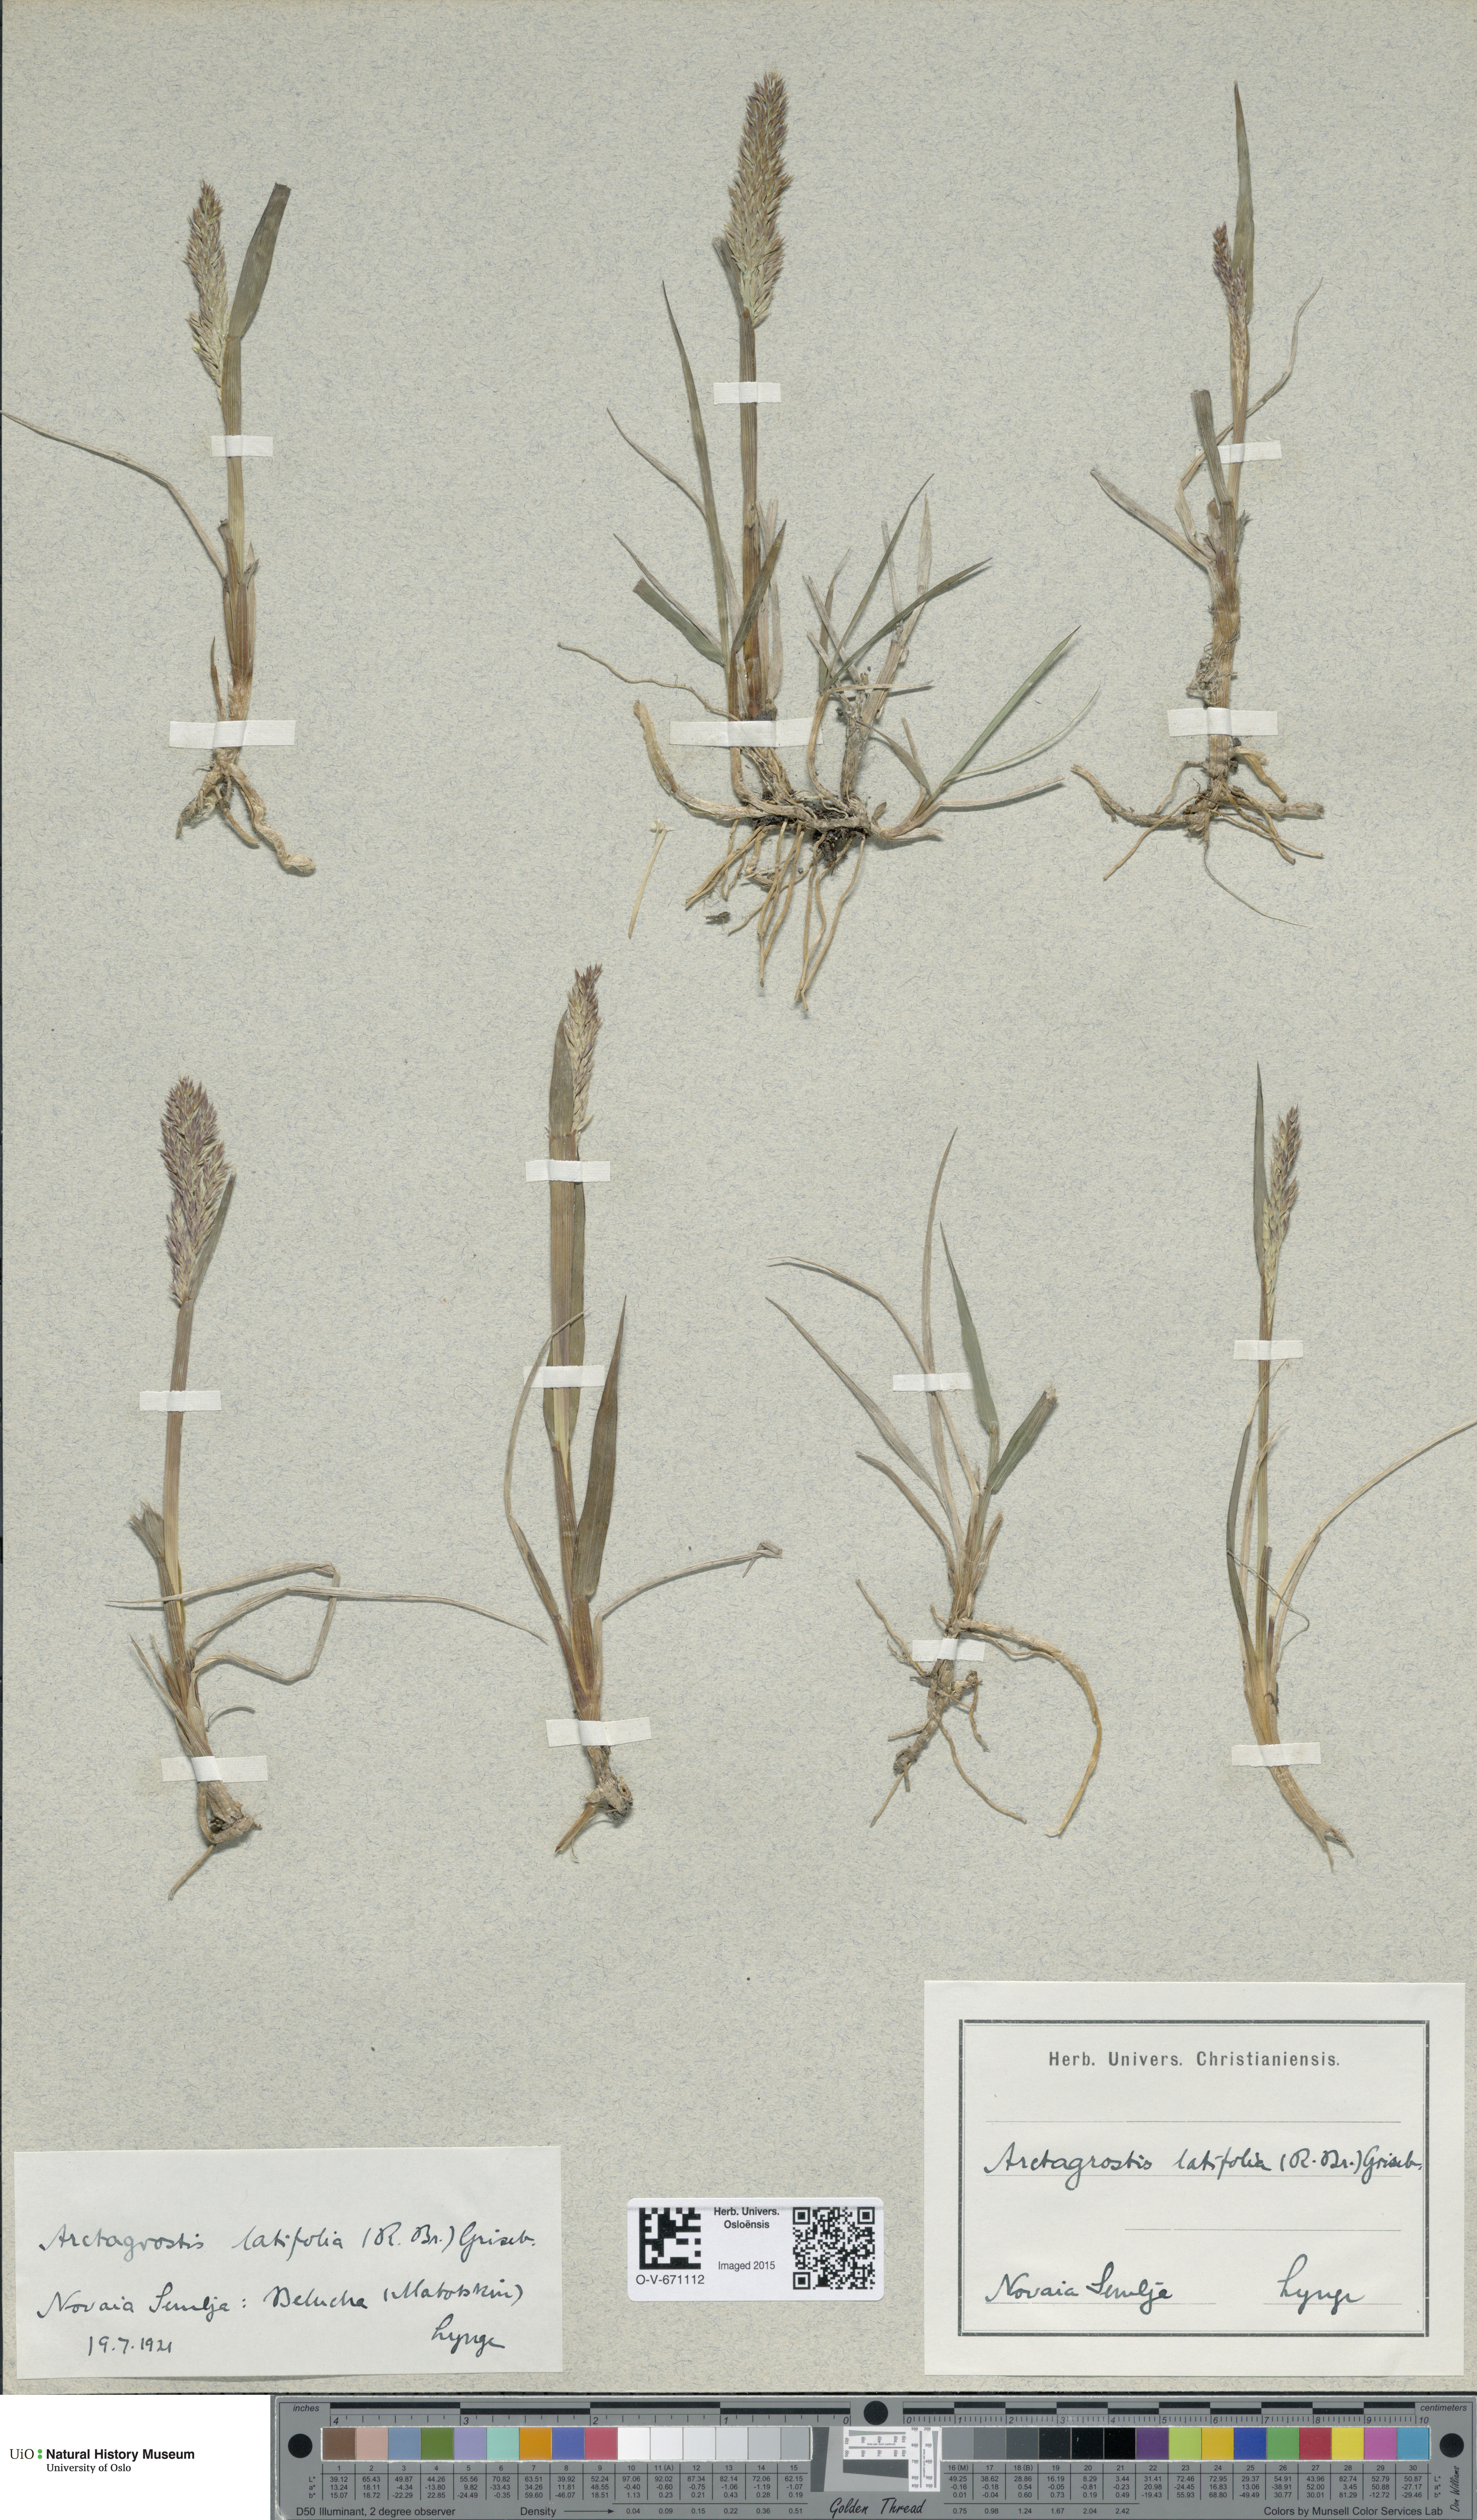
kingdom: Plantae
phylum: Tracheophyta
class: Liliopsida
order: Poales
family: Poaceae
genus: Arctagrostis
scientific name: Arctagrostis latifolia
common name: Arctic grass
